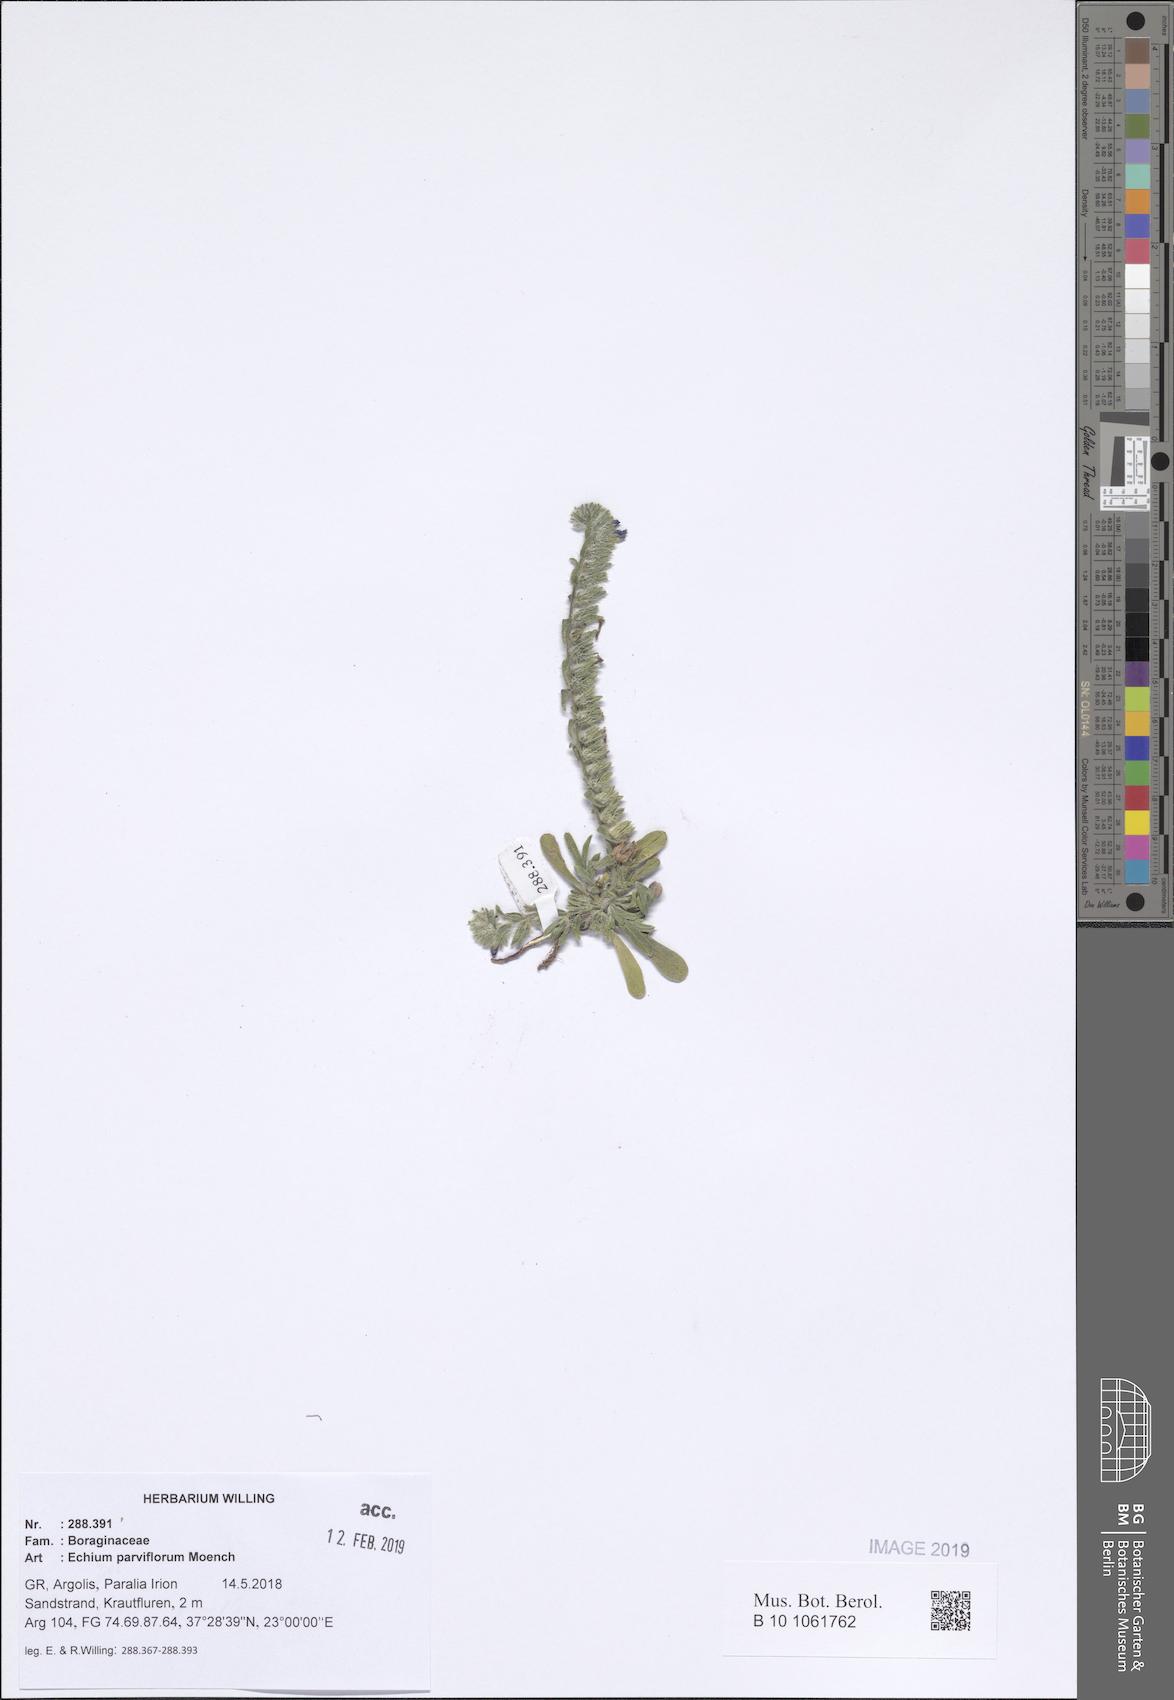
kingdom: Plantae
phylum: Tracheophyta
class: Magnoliopsida
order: Boraginales
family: Boraginaceae
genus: Echium
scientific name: Echium parviflorum
